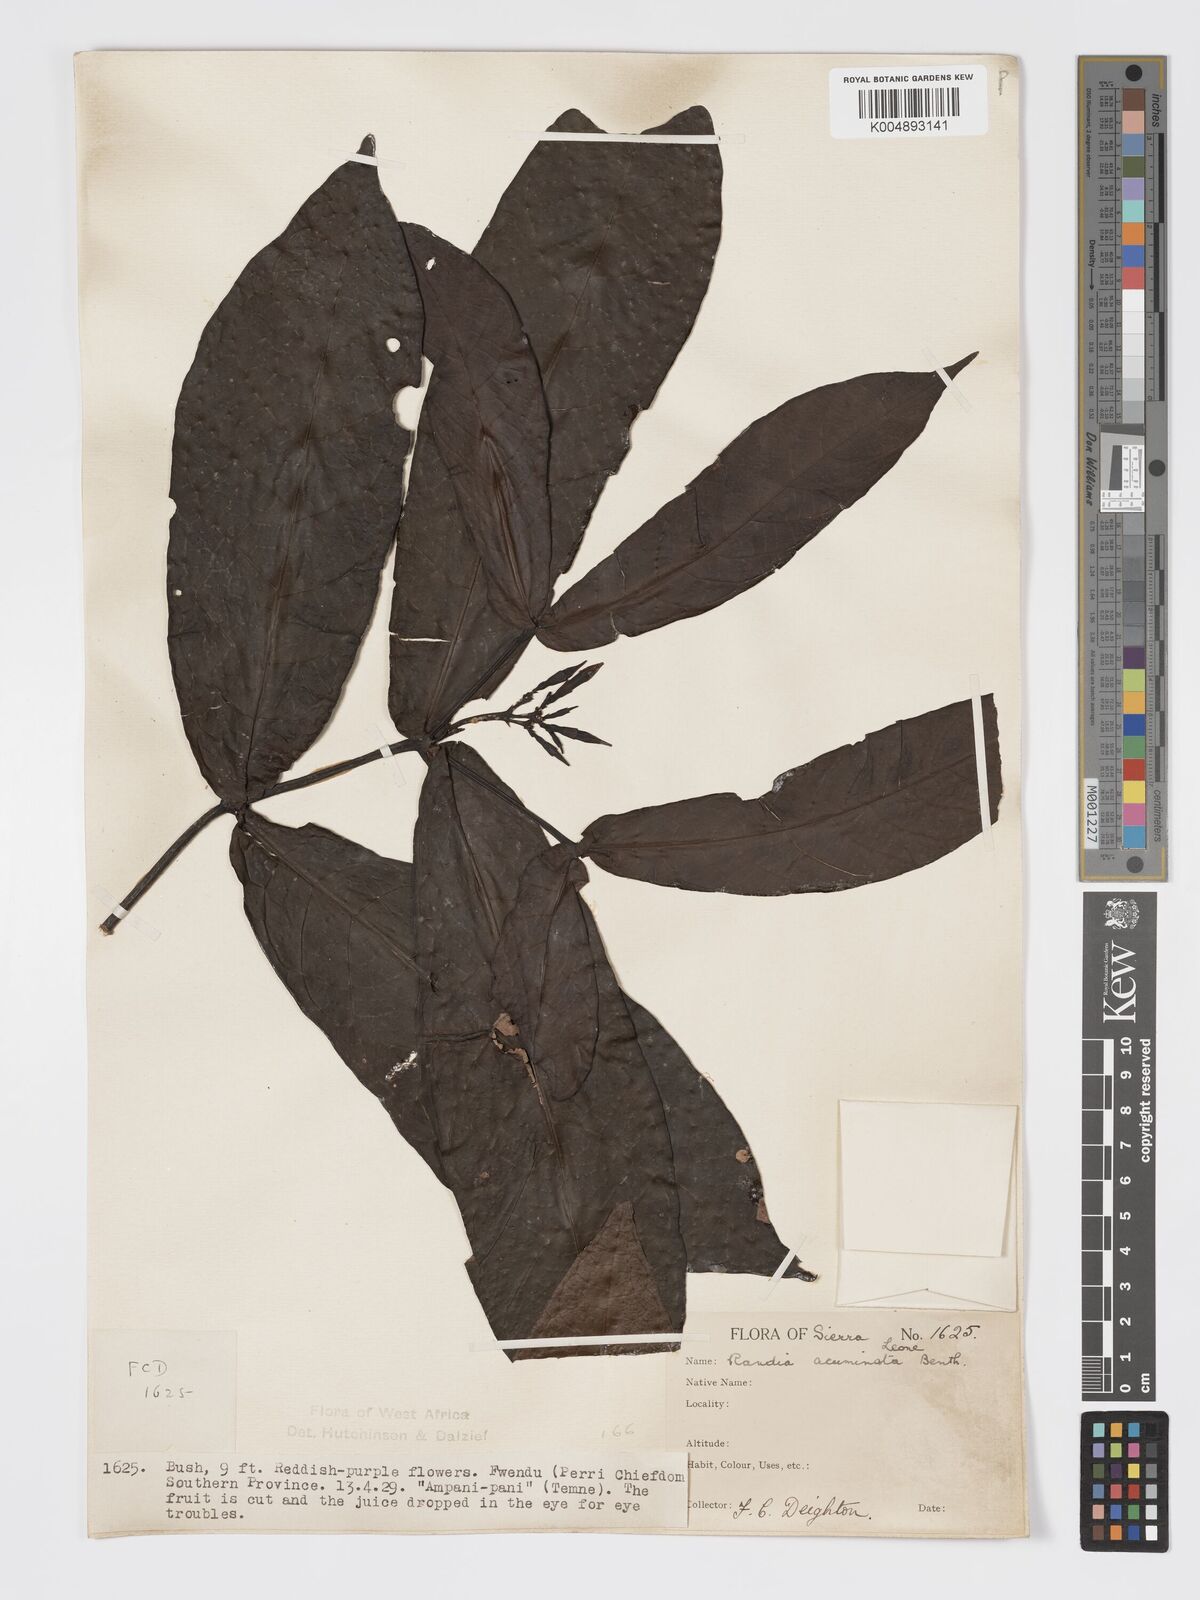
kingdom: Plantae
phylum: Tracheophyta
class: Magnoliopsida
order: Gentianales
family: Rubiaceae
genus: Massularia
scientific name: Massularia acuminata
